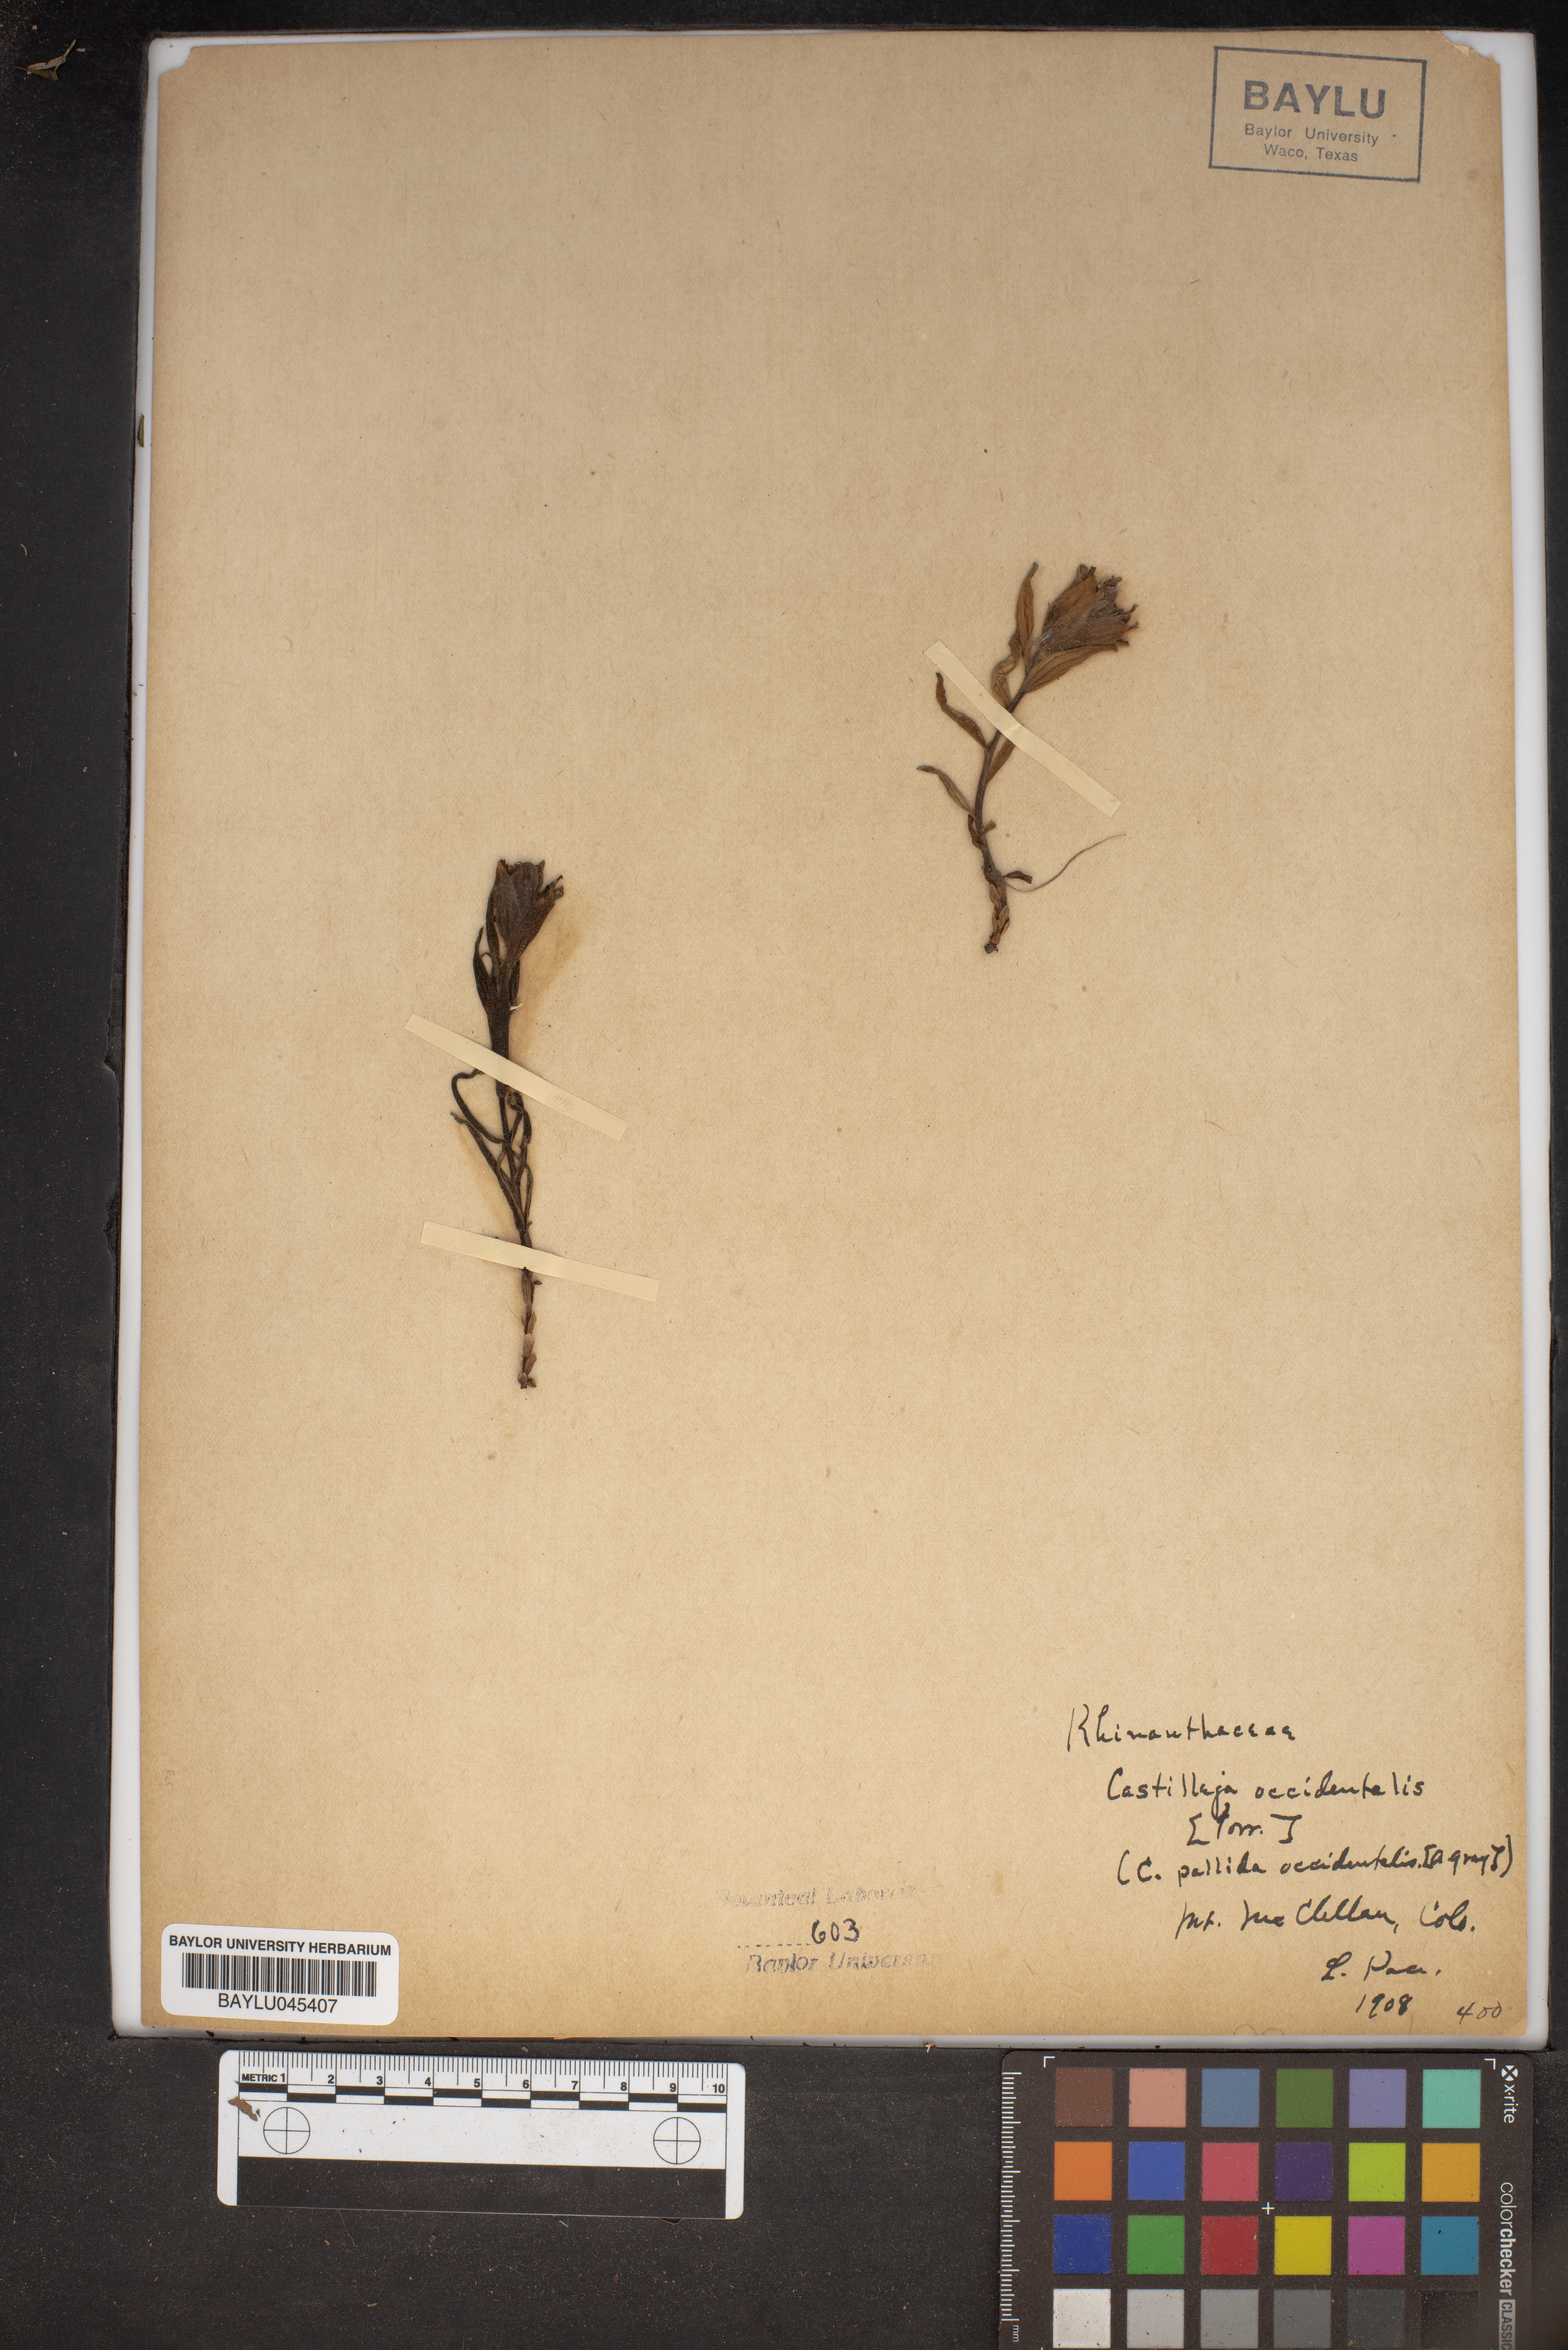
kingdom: Plantae
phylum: Tracheophyta
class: Magnoliopsida
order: Lamiales
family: Orobanchaceae
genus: Castilleja
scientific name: Castilleja occidentalis
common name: Western paintbrush
